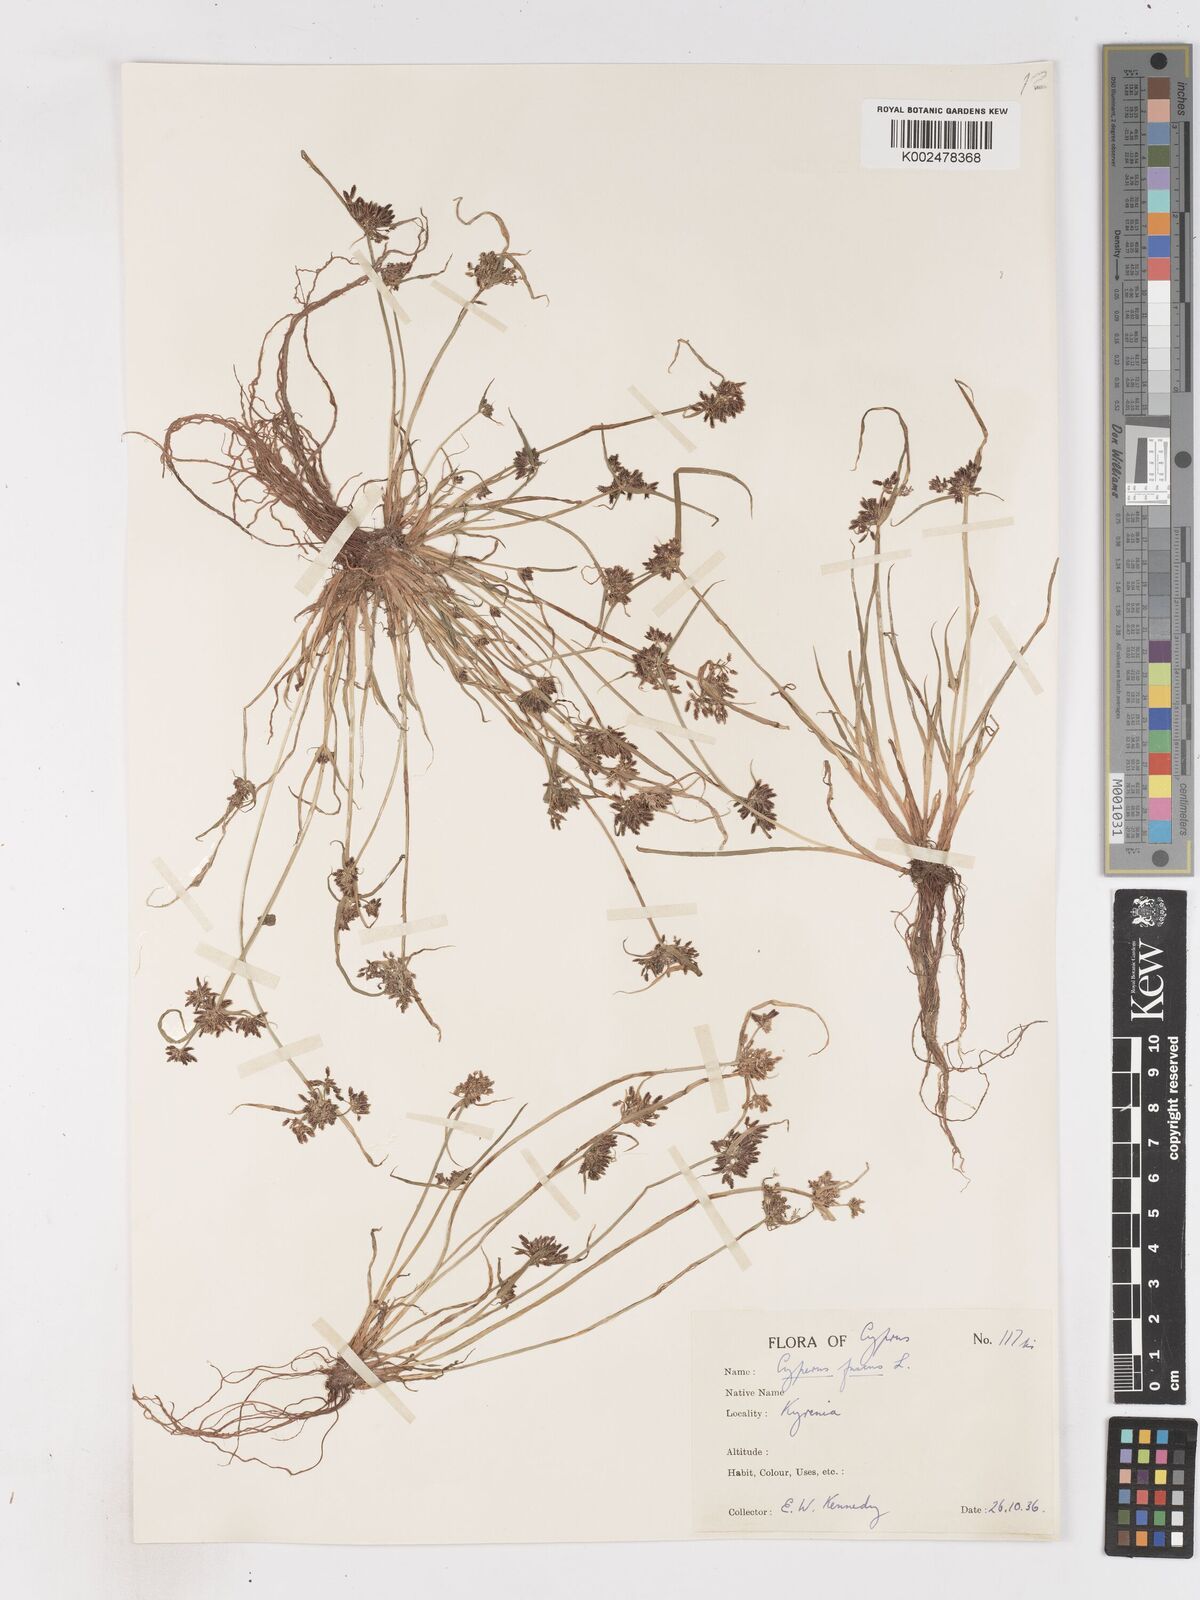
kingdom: Plantae
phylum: Tracheophyta
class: Liliopsida
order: Poales
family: Cyperaceae
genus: Cyperus
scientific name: Cyperus fuscus
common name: Brown galingale
